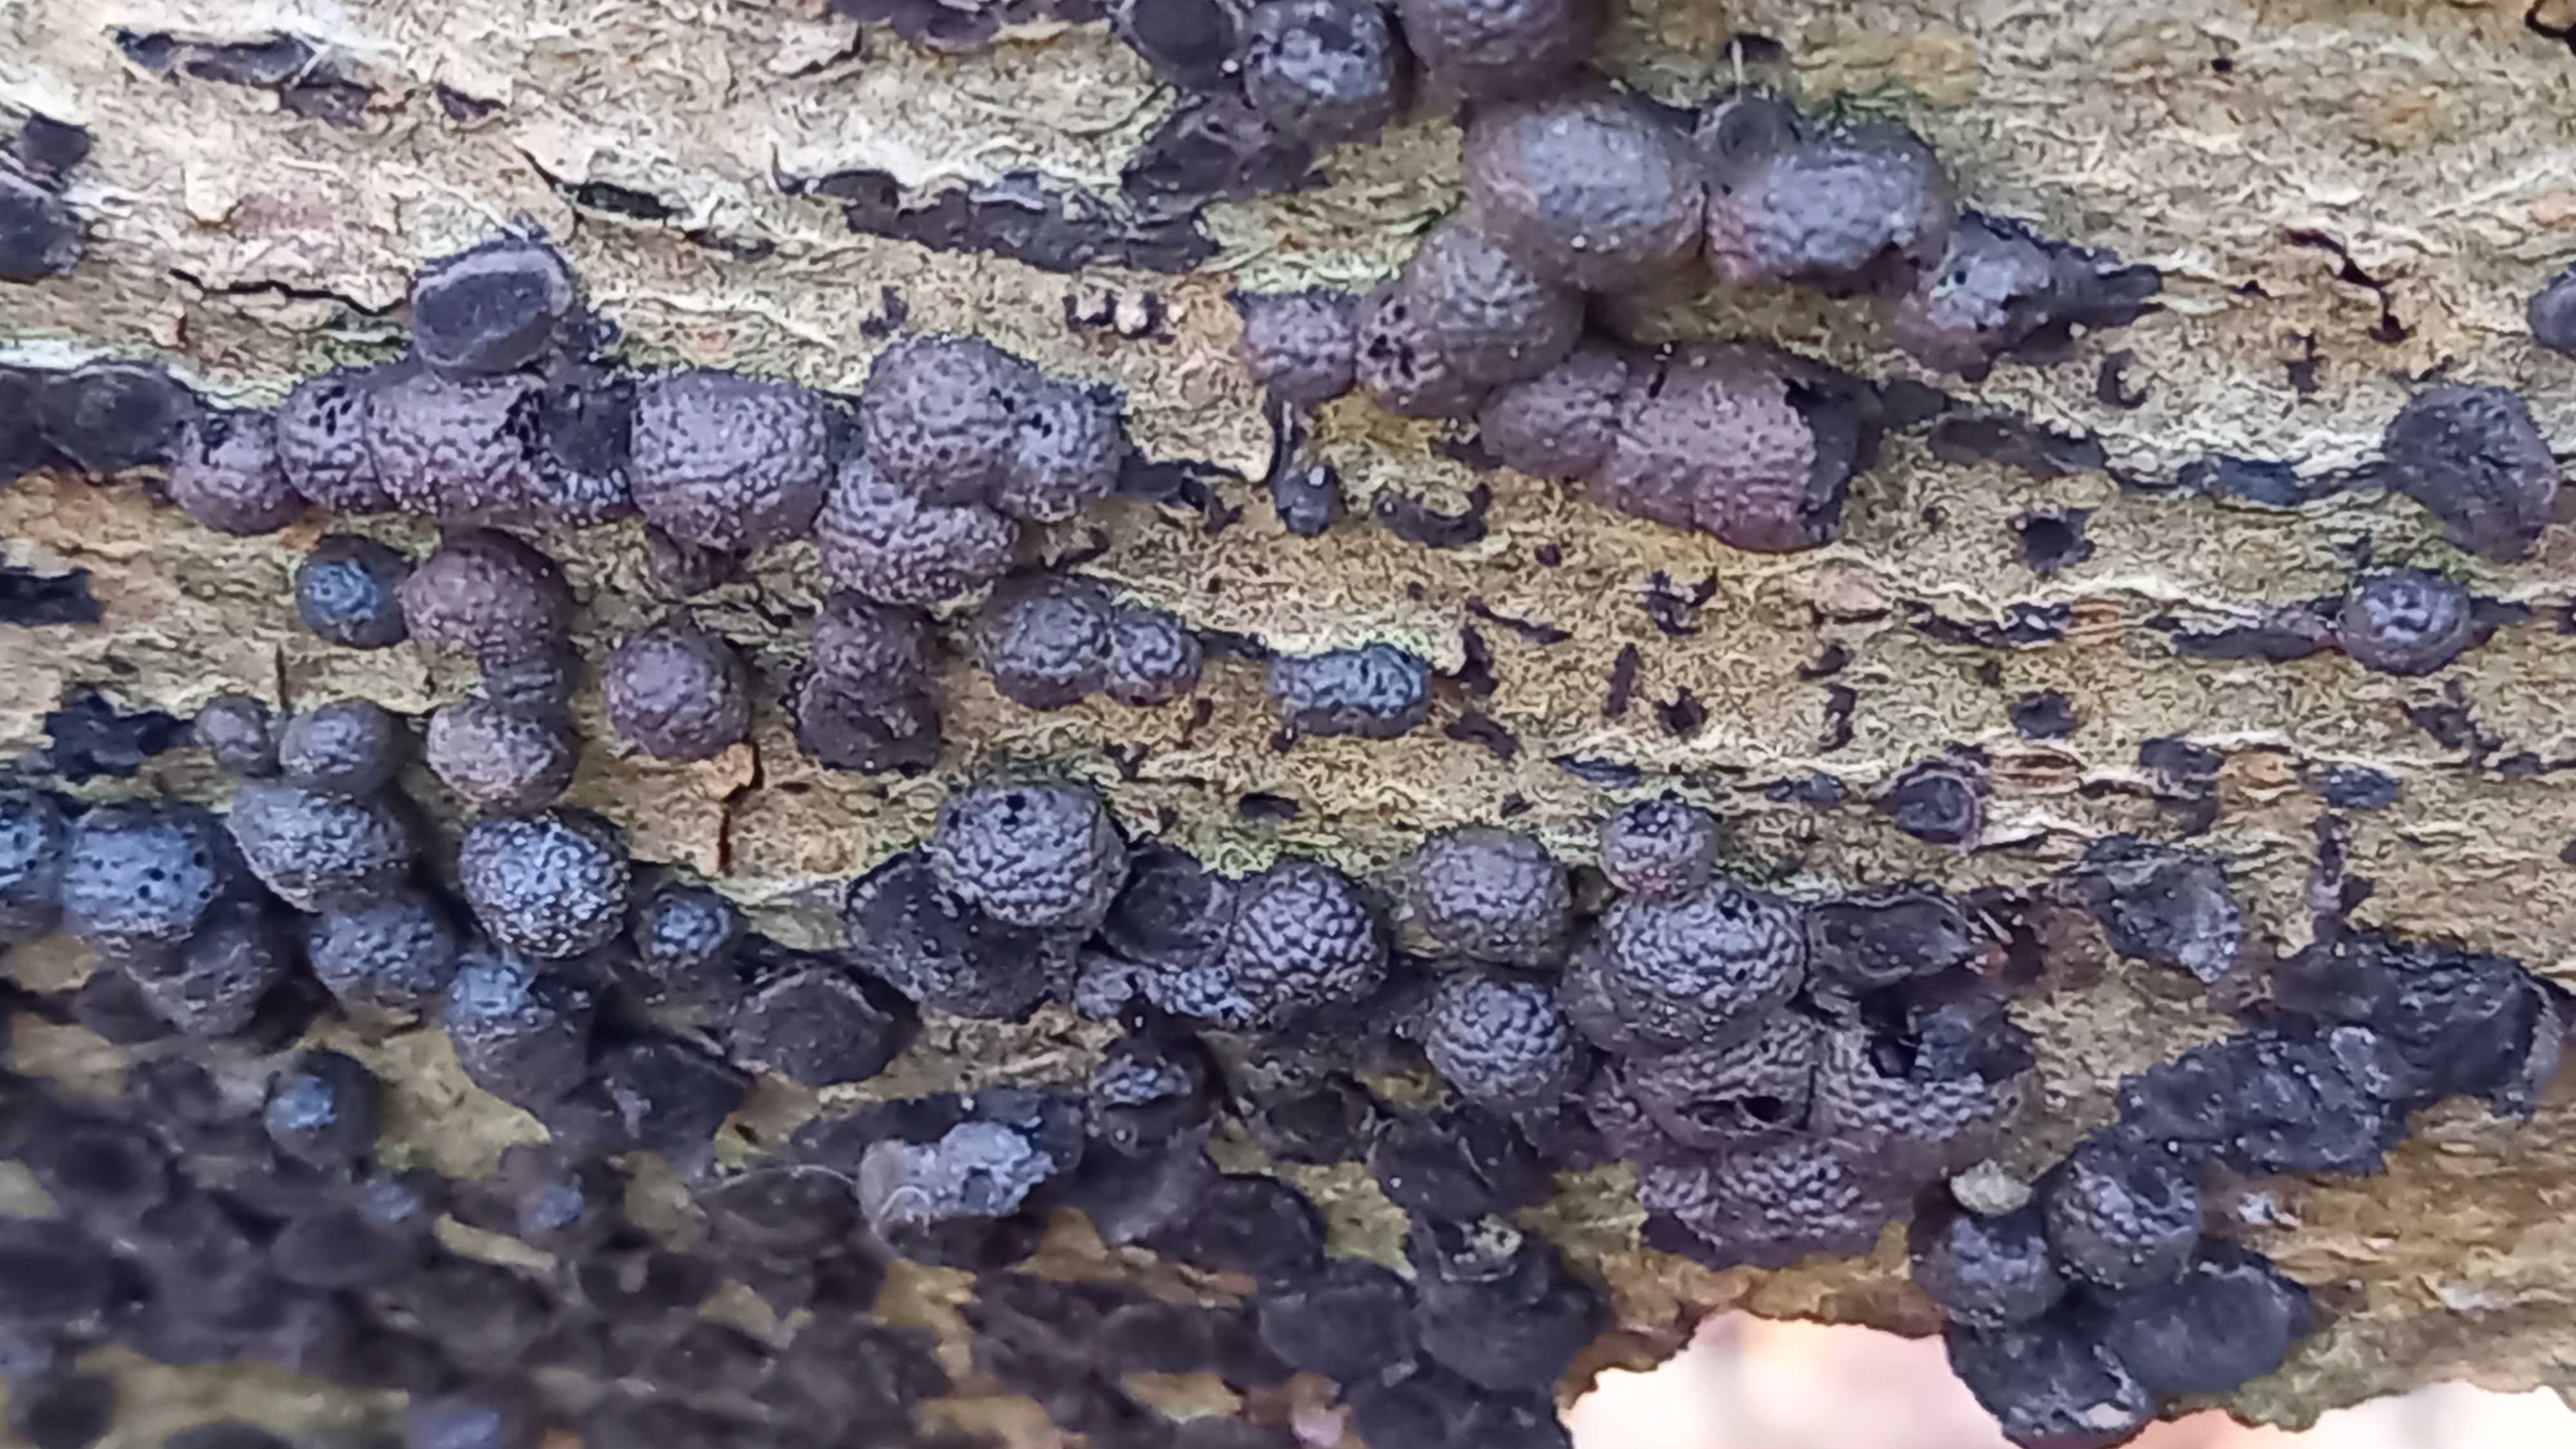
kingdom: Fungi
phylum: Ascomycota
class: Sordariomycetes
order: Xylariales
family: Hypoxylaceae
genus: Hypoxylon
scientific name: Hypoxylon fragiforme
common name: kuljordbær
